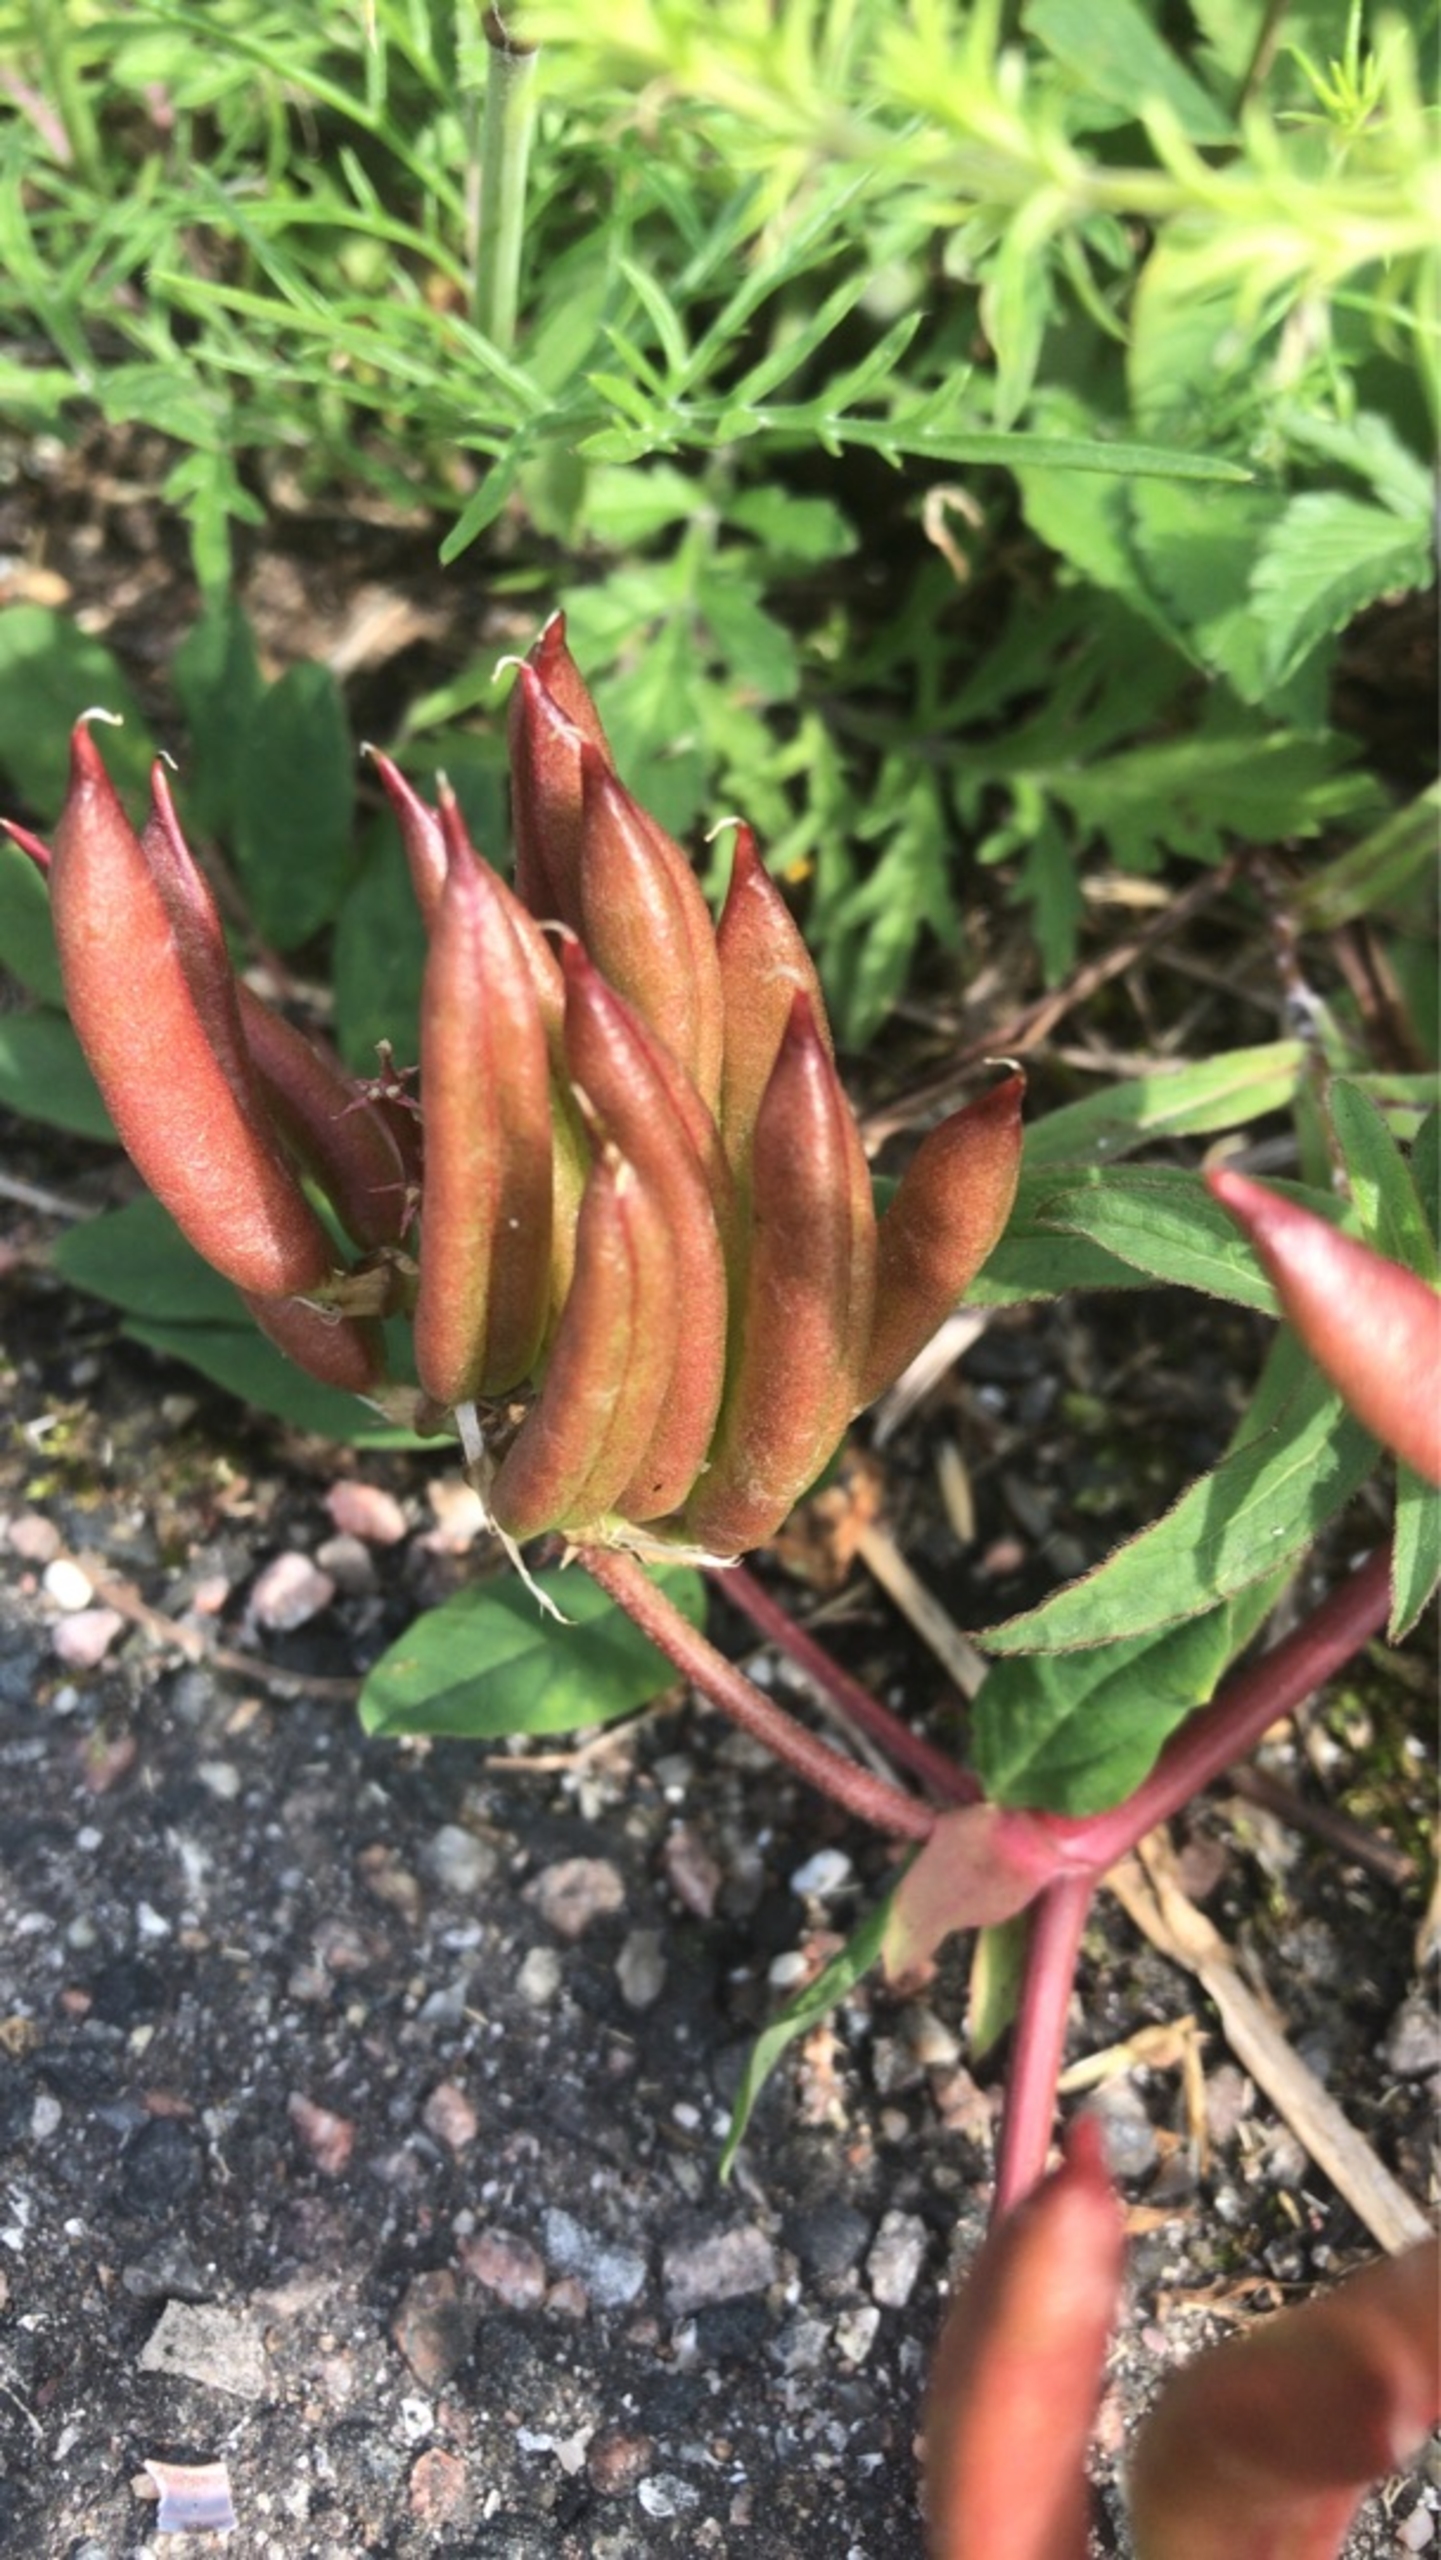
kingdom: Plantae
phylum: Tracheophyta
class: Magnoliopsida
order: Fabales
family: Fabaceae
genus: Astragalus
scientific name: Astragalus glycyphyllos
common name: Sød astragel
